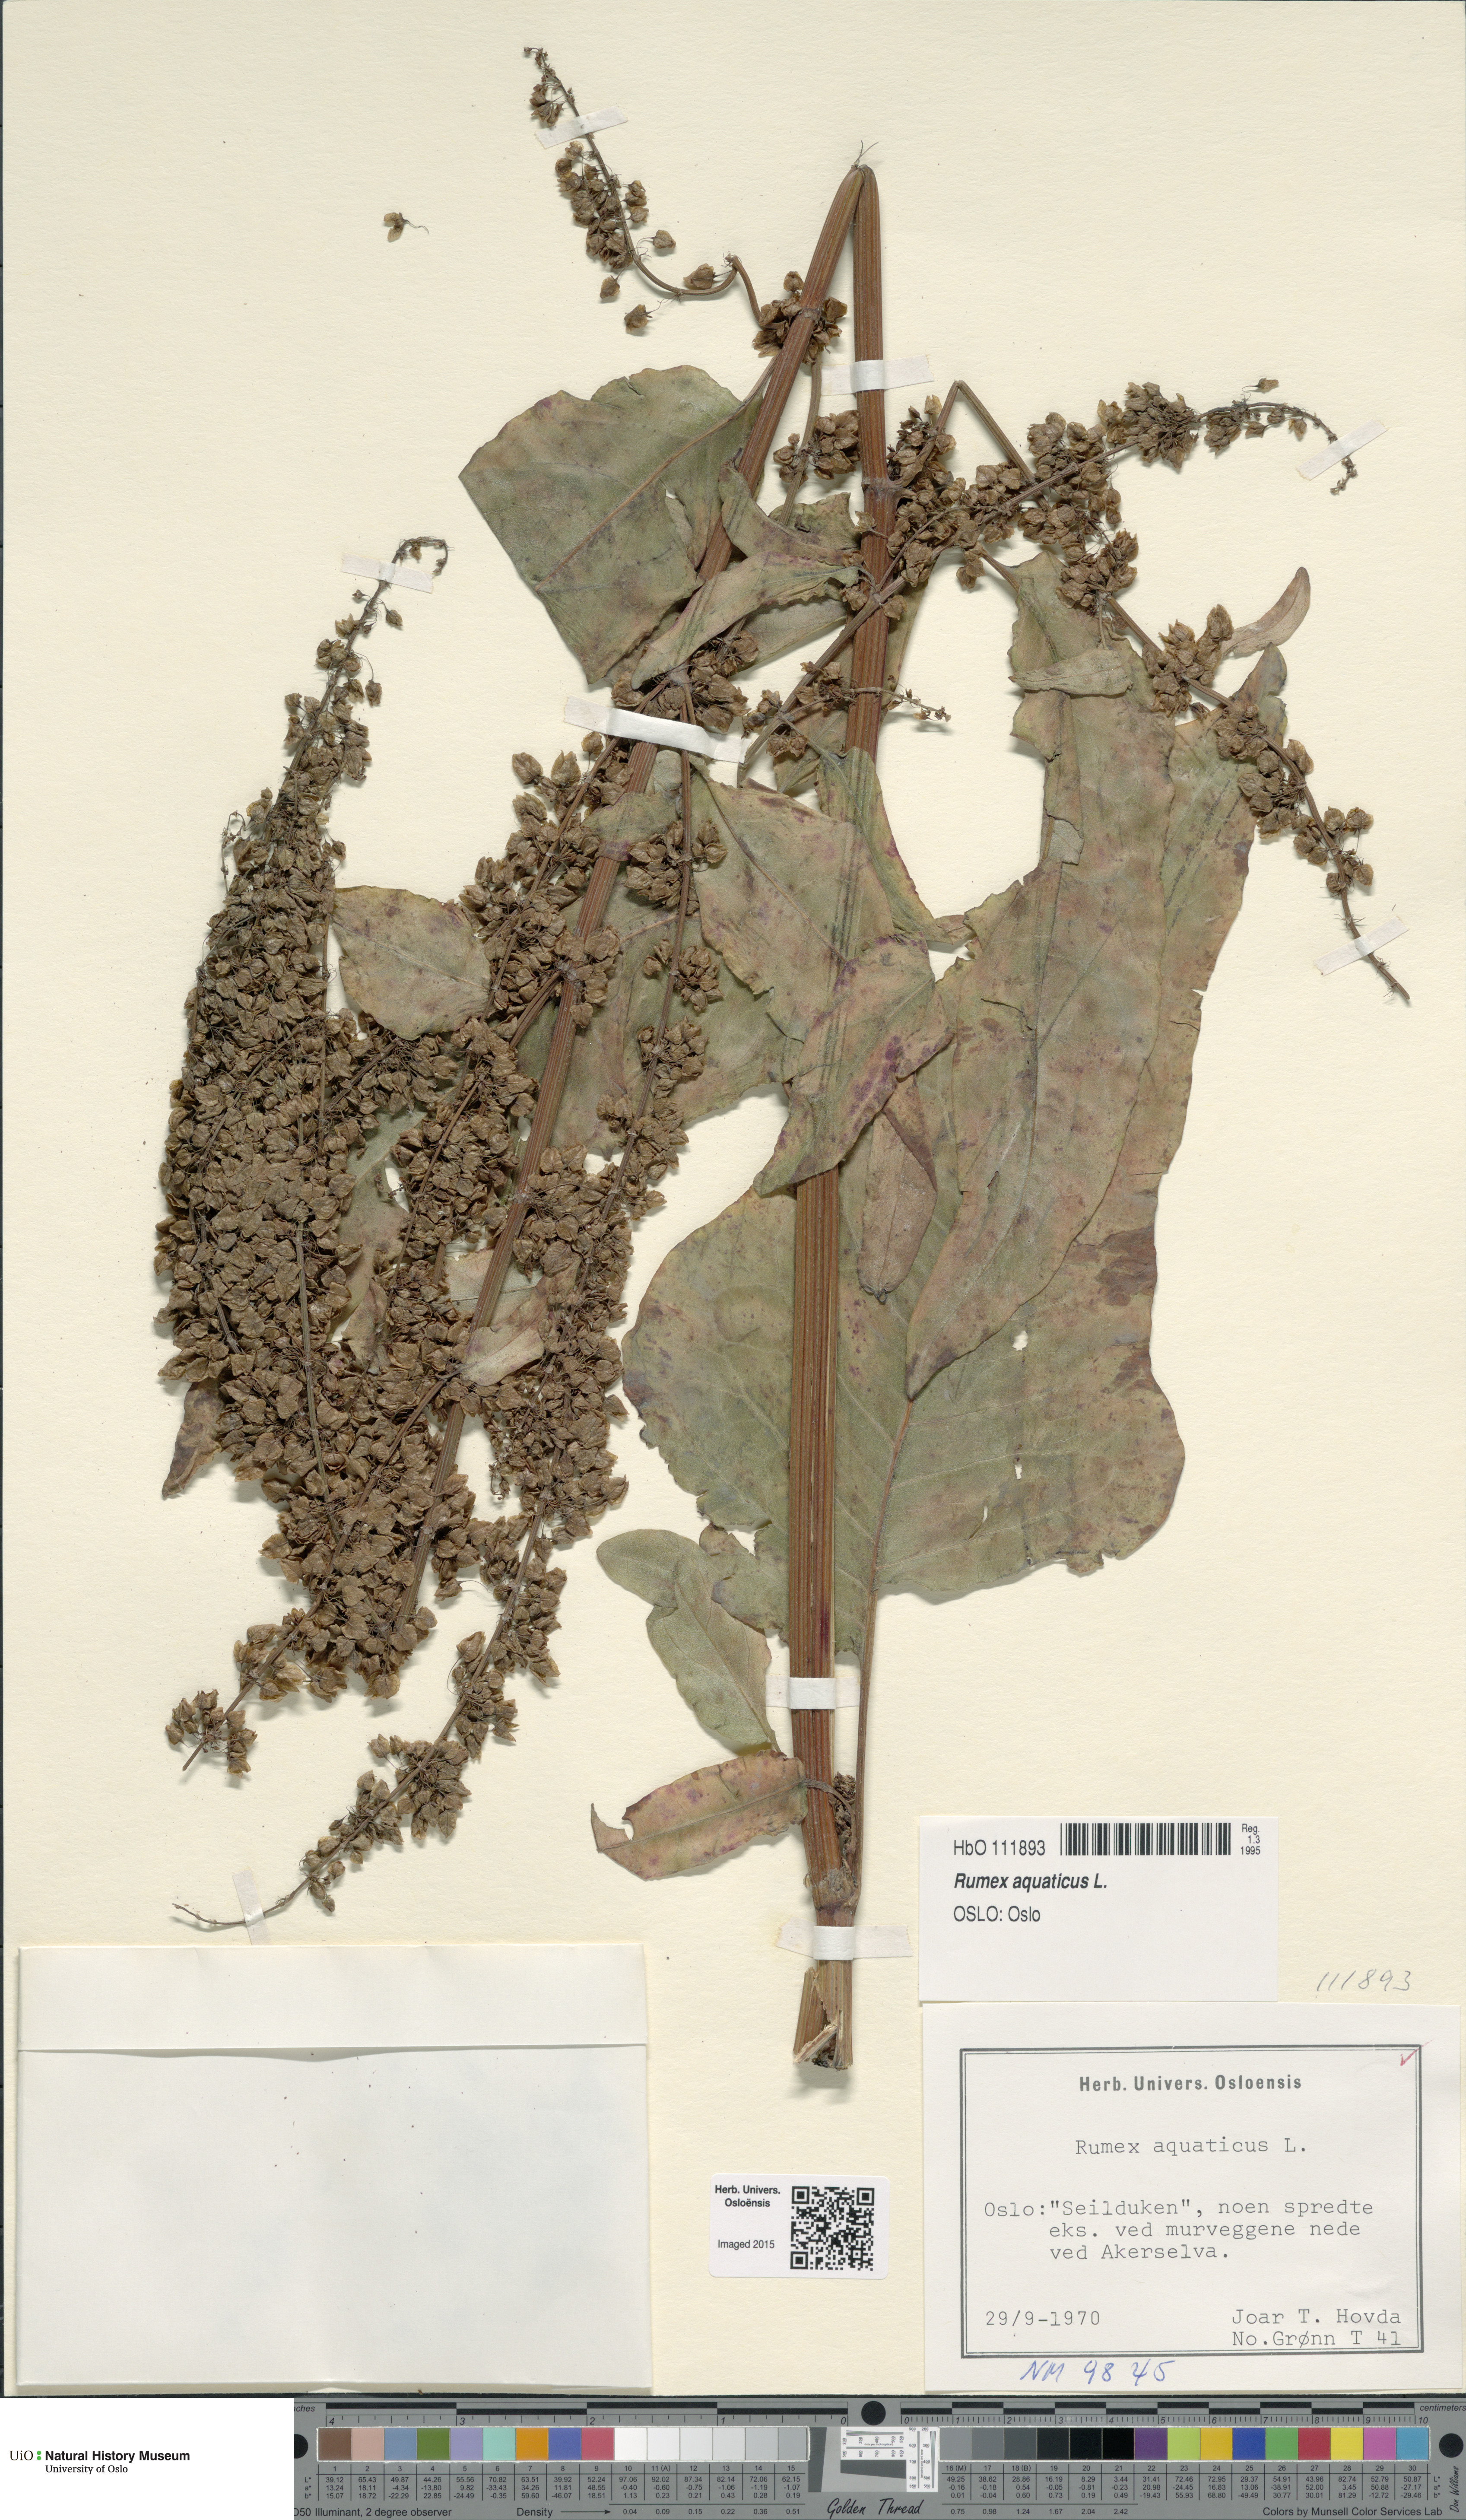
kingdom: Plantae
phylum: Tracheophyta
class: Magnoliopsida
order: Caryophyllales
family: Polygonaceae
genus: Rumex
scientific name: Rumex aquaticus
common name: Scottish dock
